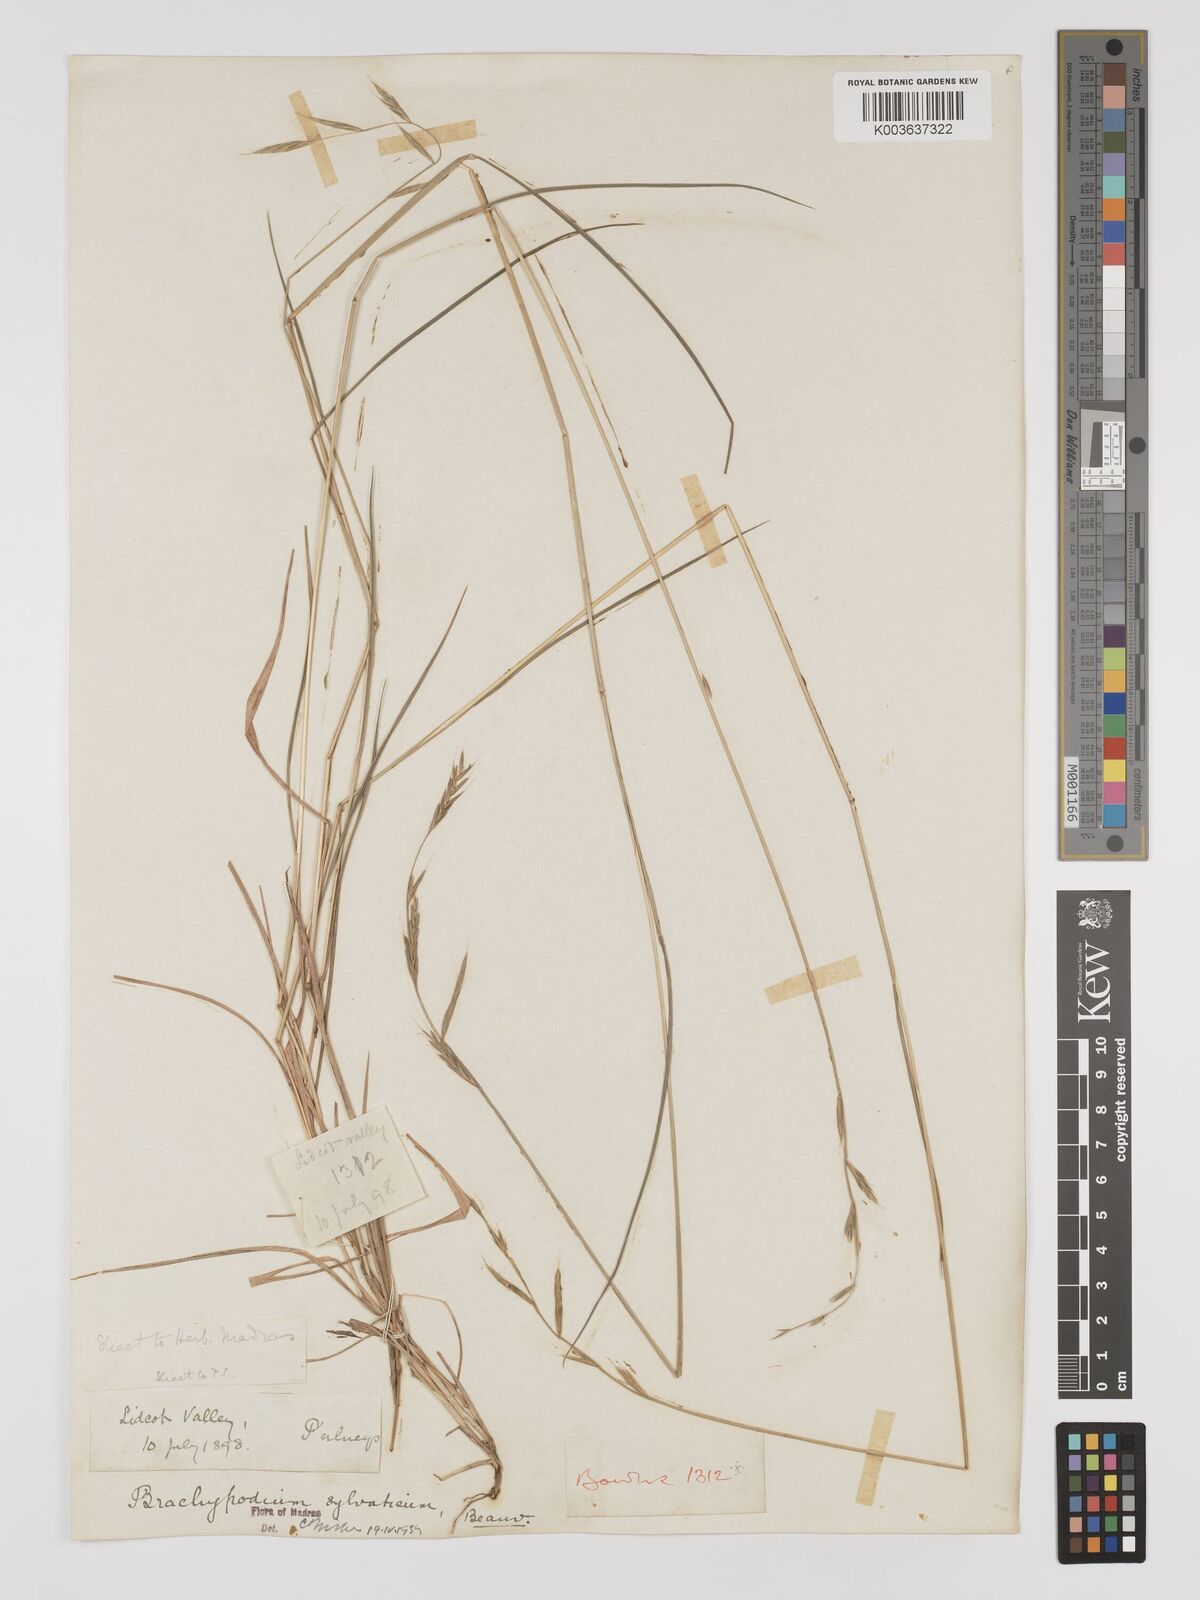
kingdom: Plantae
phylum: Tracheophyta
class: Liliopsida
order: Poales
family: Poaceae
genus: Brachypodium
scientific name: Brachypodium sylvaticum
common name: False-brome
